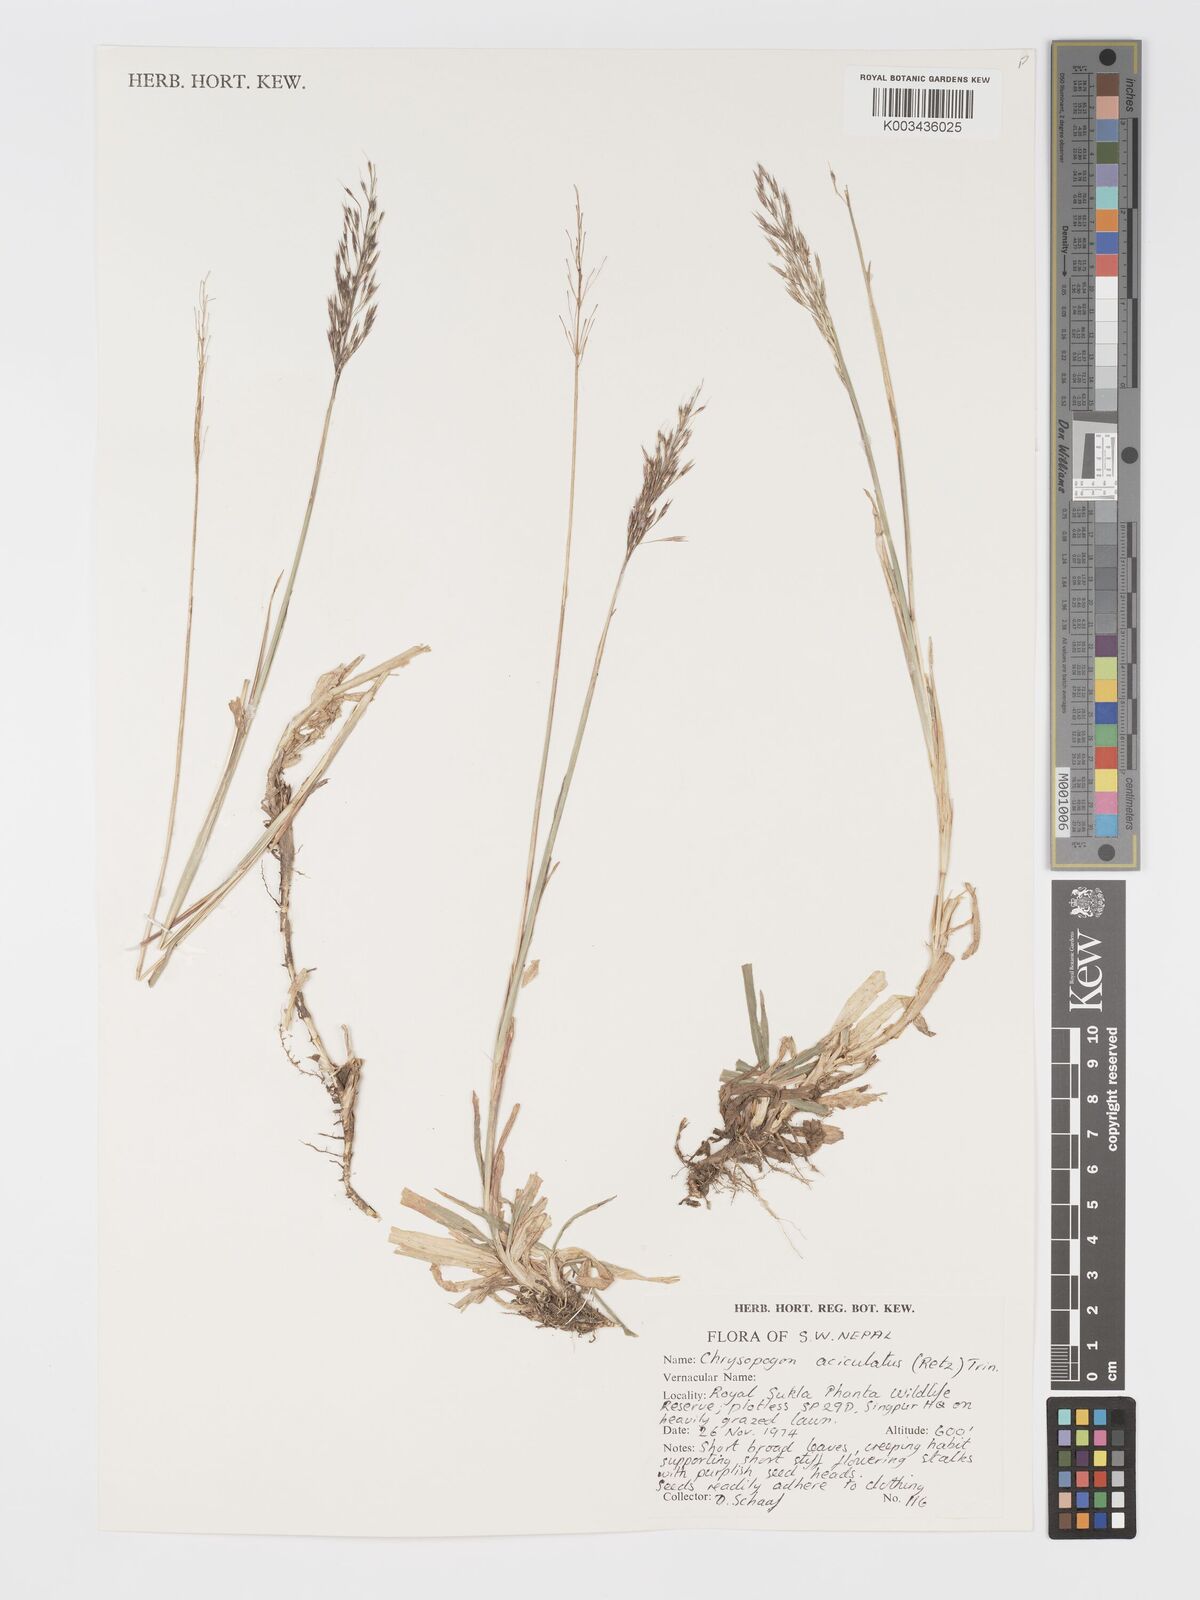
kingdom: Plantae
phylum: Tracheophyta
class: Liliopsida
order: Poales
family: Poaceae
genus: Chrysopogon
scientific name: Chrysopogon aciculatus
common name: Pilipiliula
